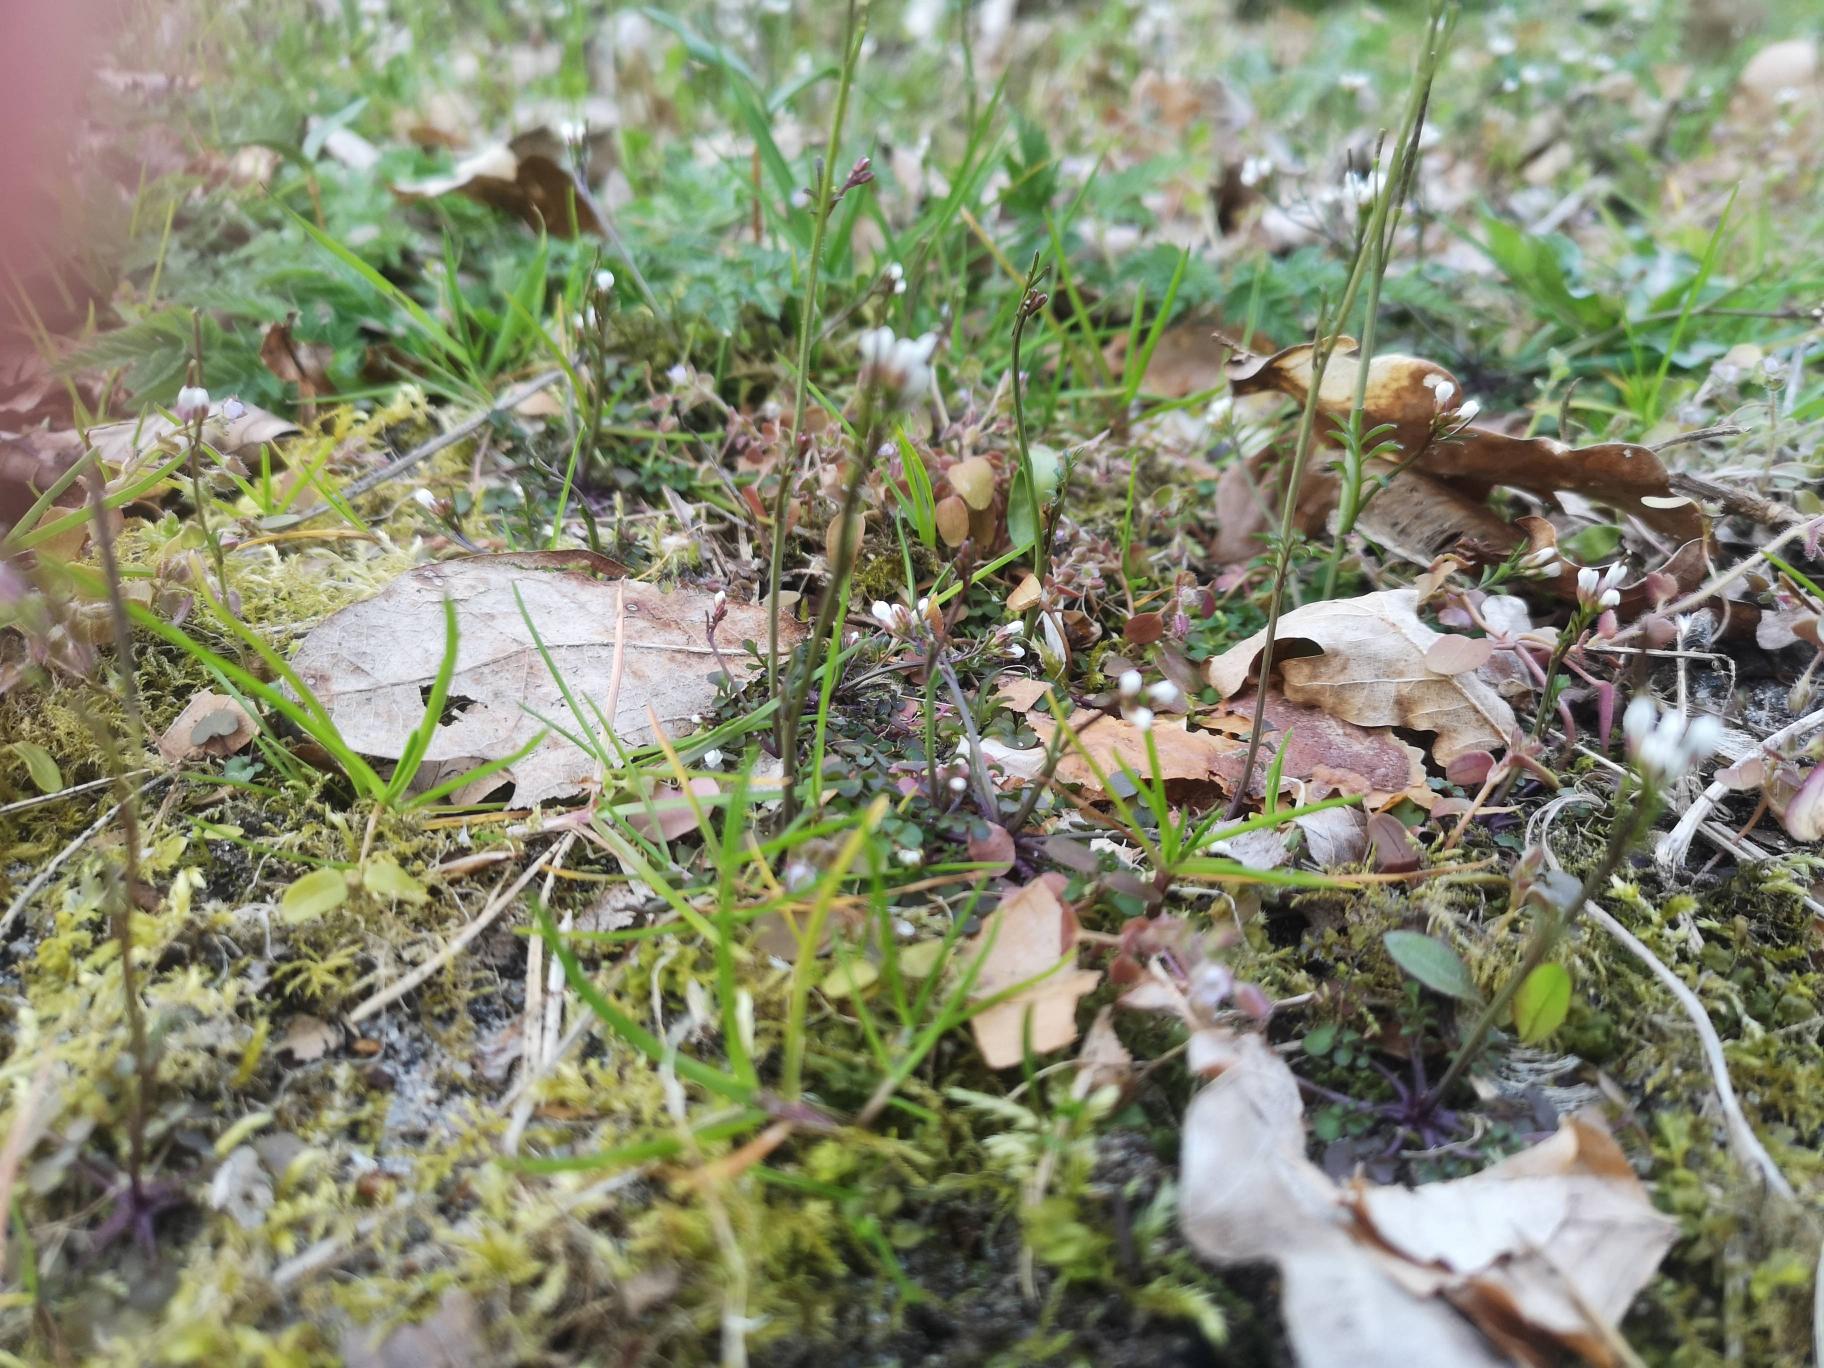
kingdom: Plantae
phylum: Tracheophyta
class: Magnoliopsida
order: Brassicales
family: Brassicaceae
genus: Cardamine
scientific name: Cardamine hirsuta
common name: Roset-springklap
